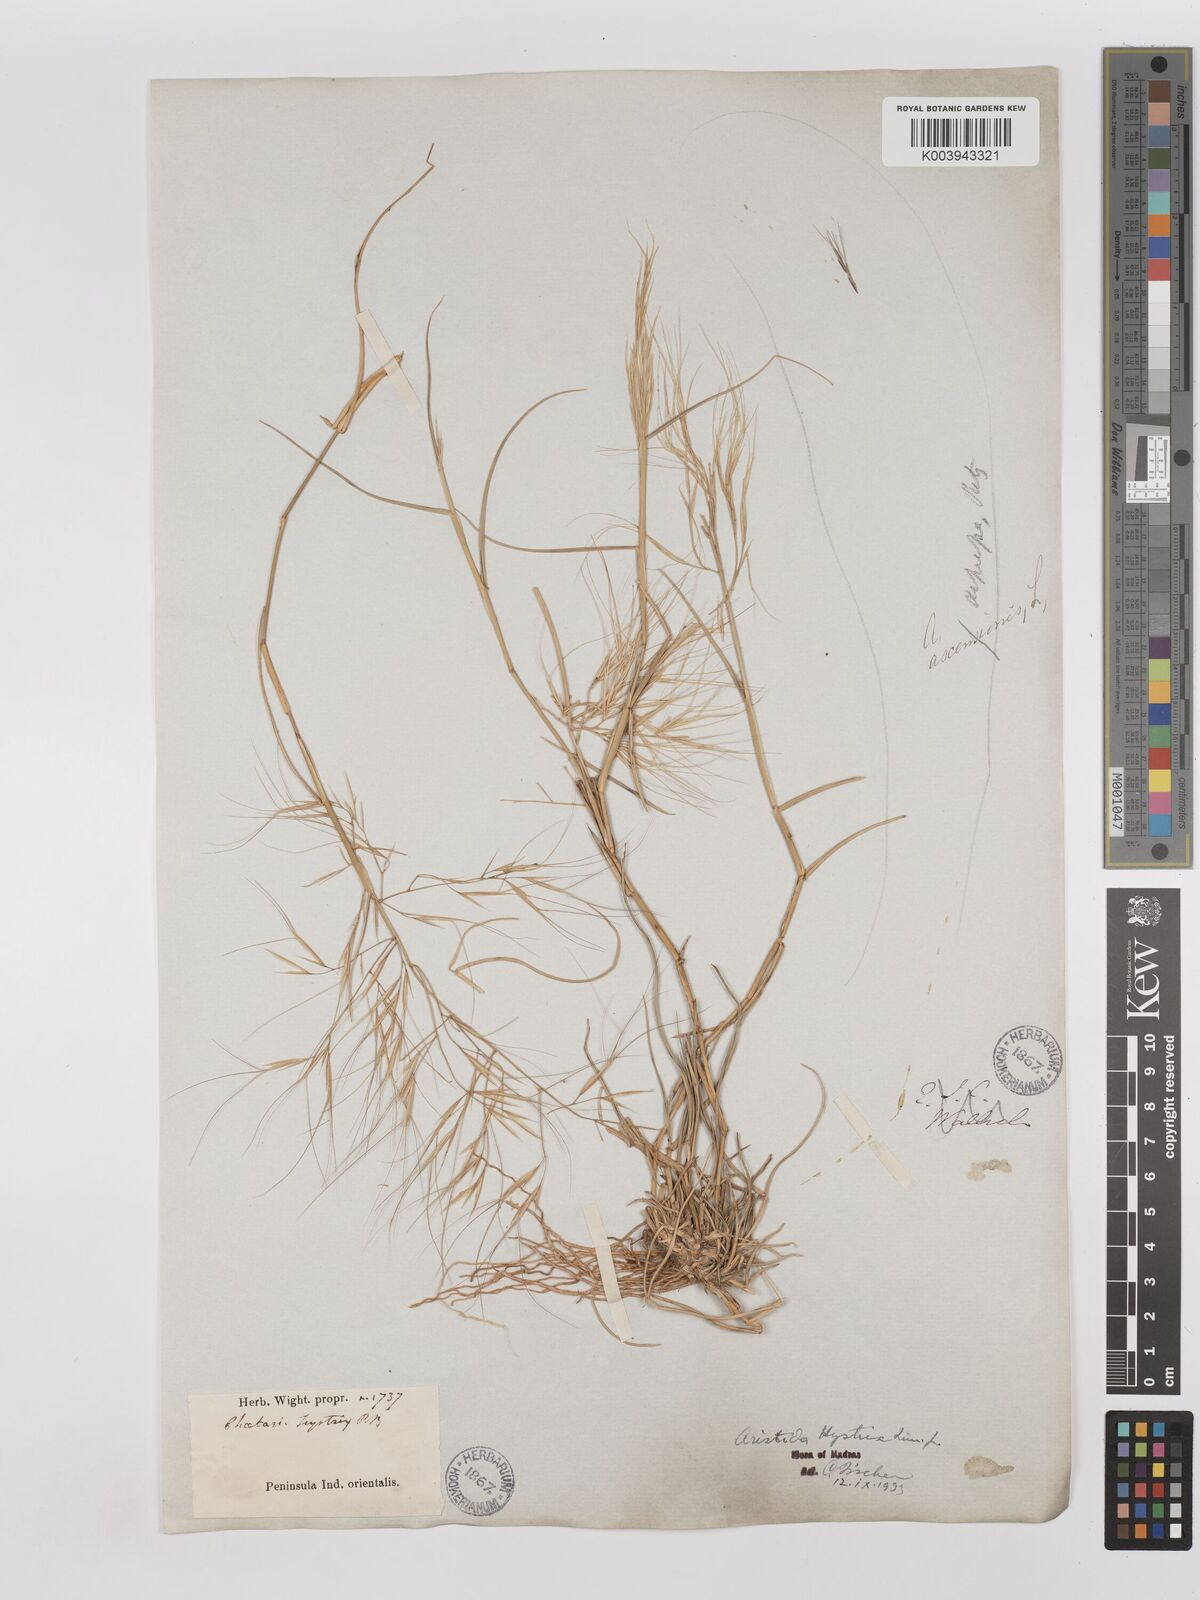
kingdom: Plantae
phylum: Tracheophyta
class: Liliopsida
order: Poales
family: Poaceae
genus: Aristida
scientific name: Aristida hystrix
